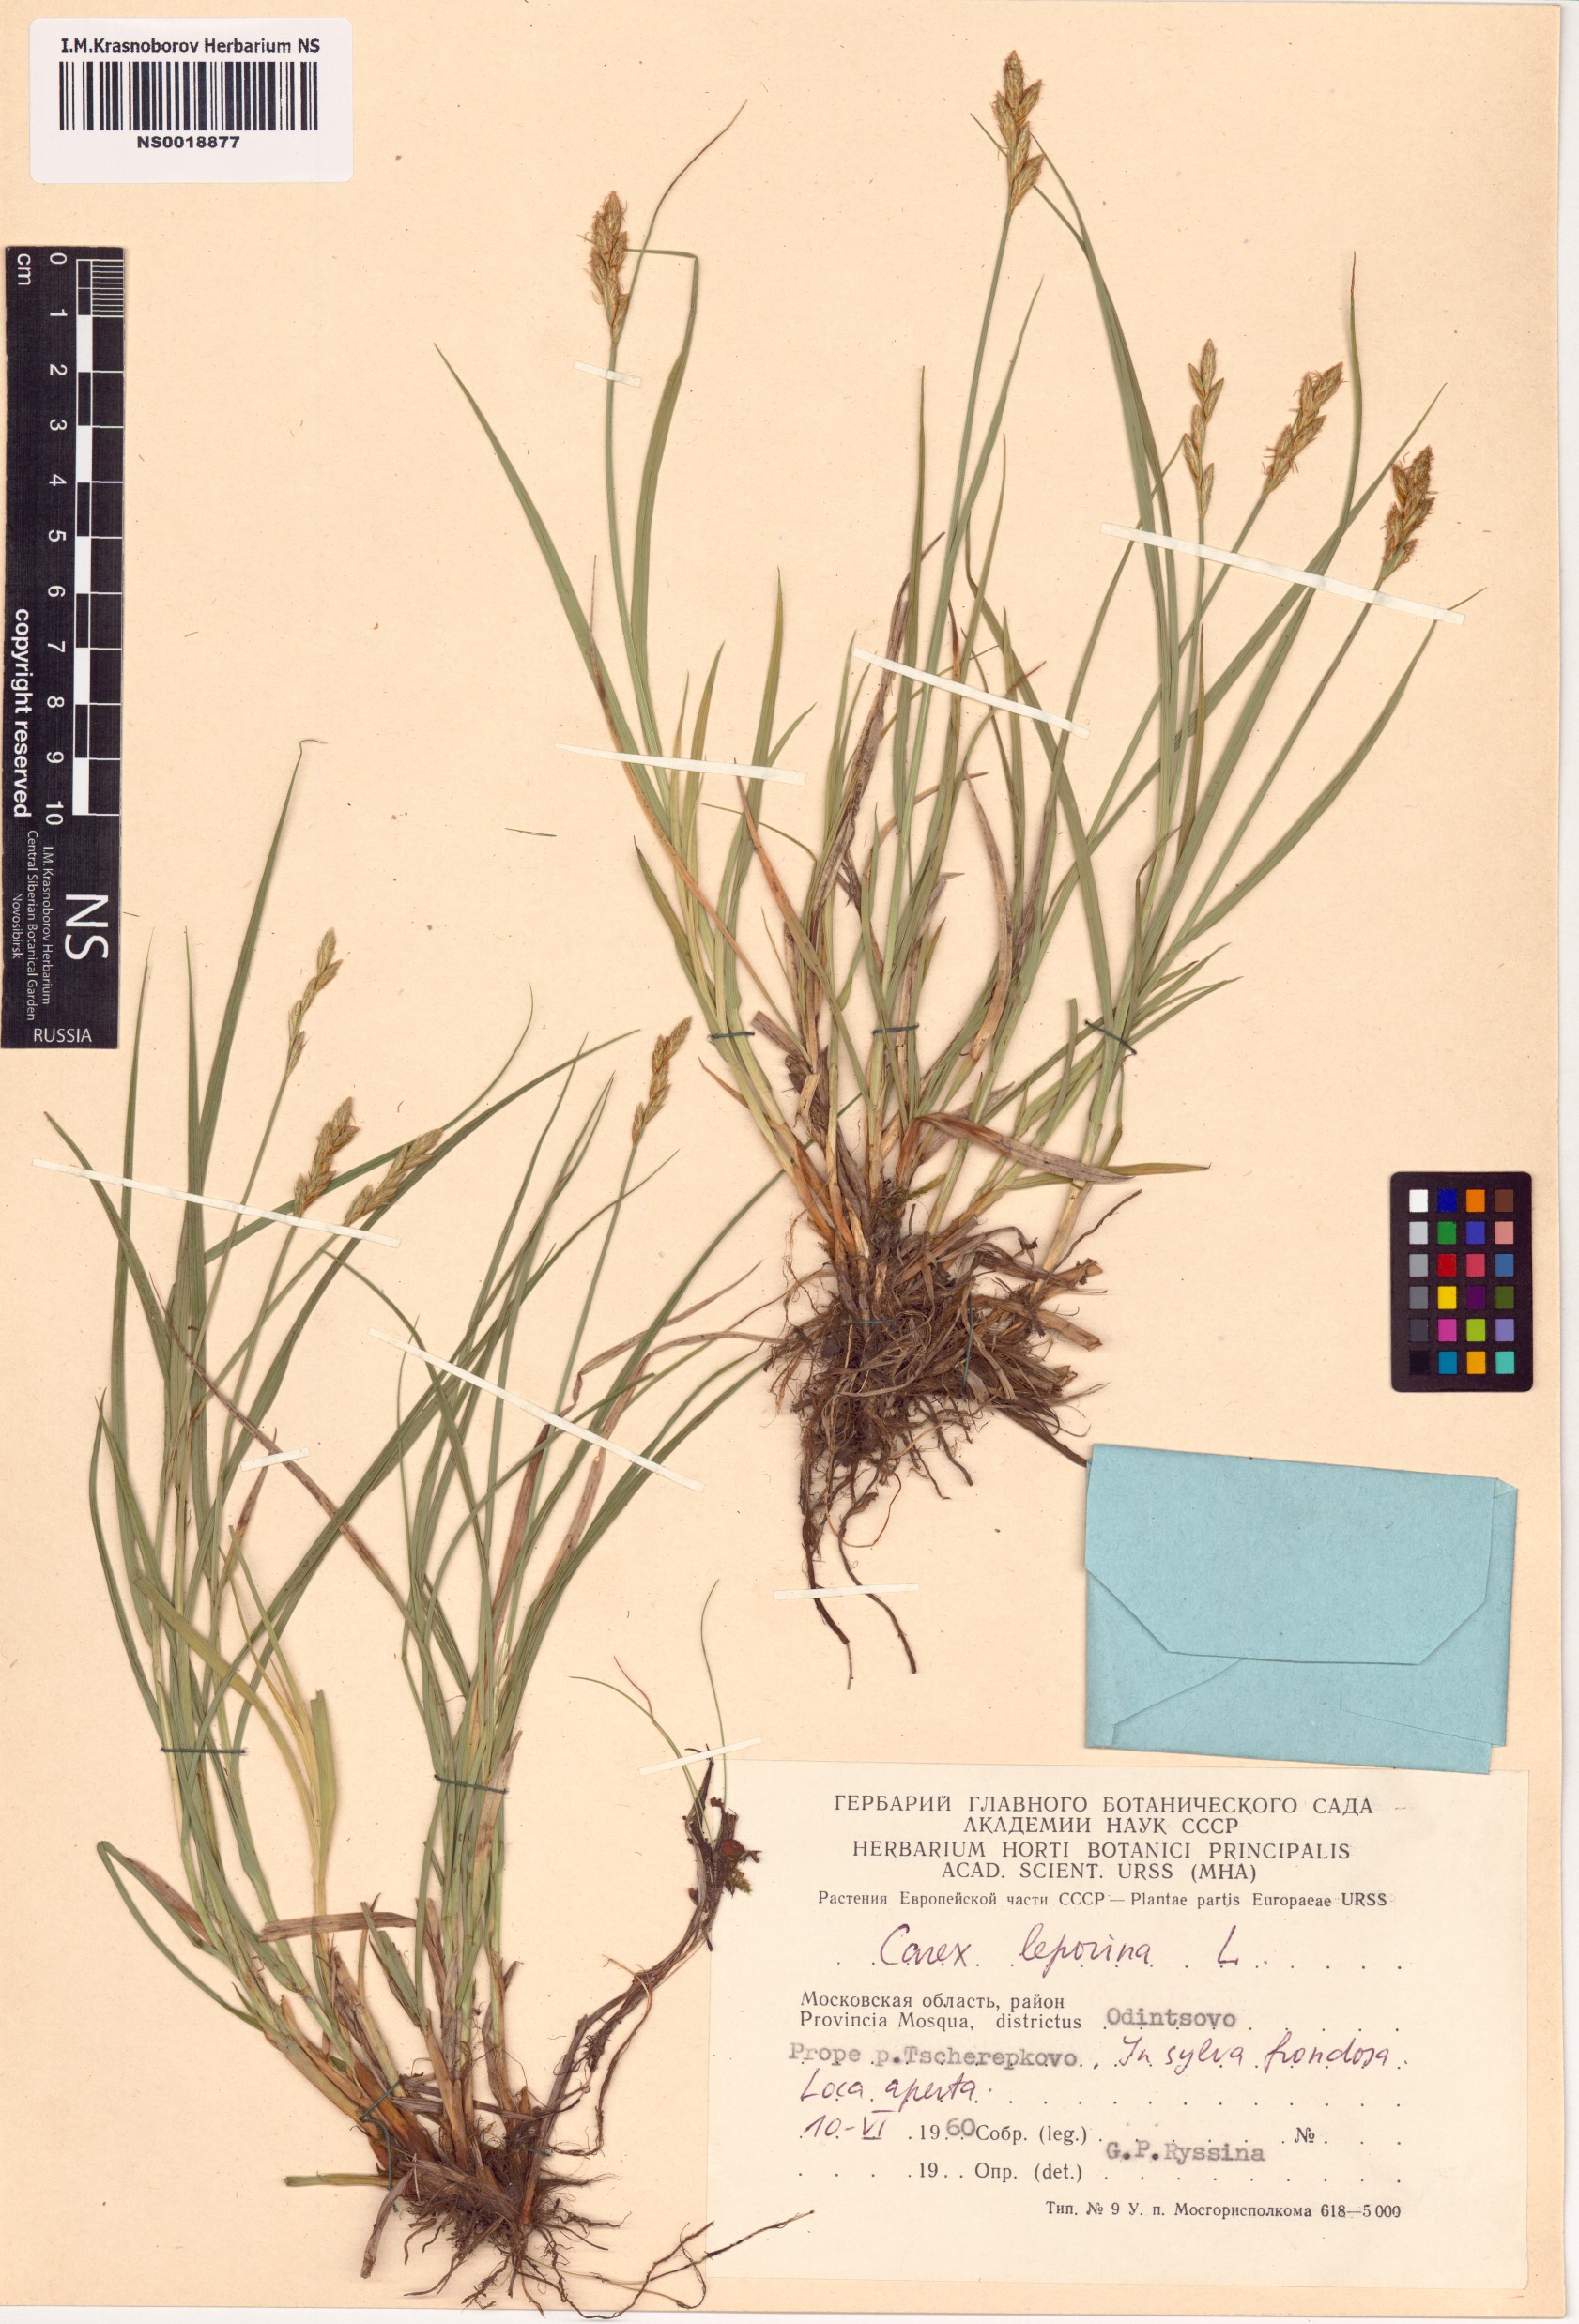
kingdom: Plantae
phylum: Tracheophyta
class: Liliopsida
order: Poales
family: Cyperaceae
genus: Carex
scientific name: Carex leporina
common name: Oval sedge
